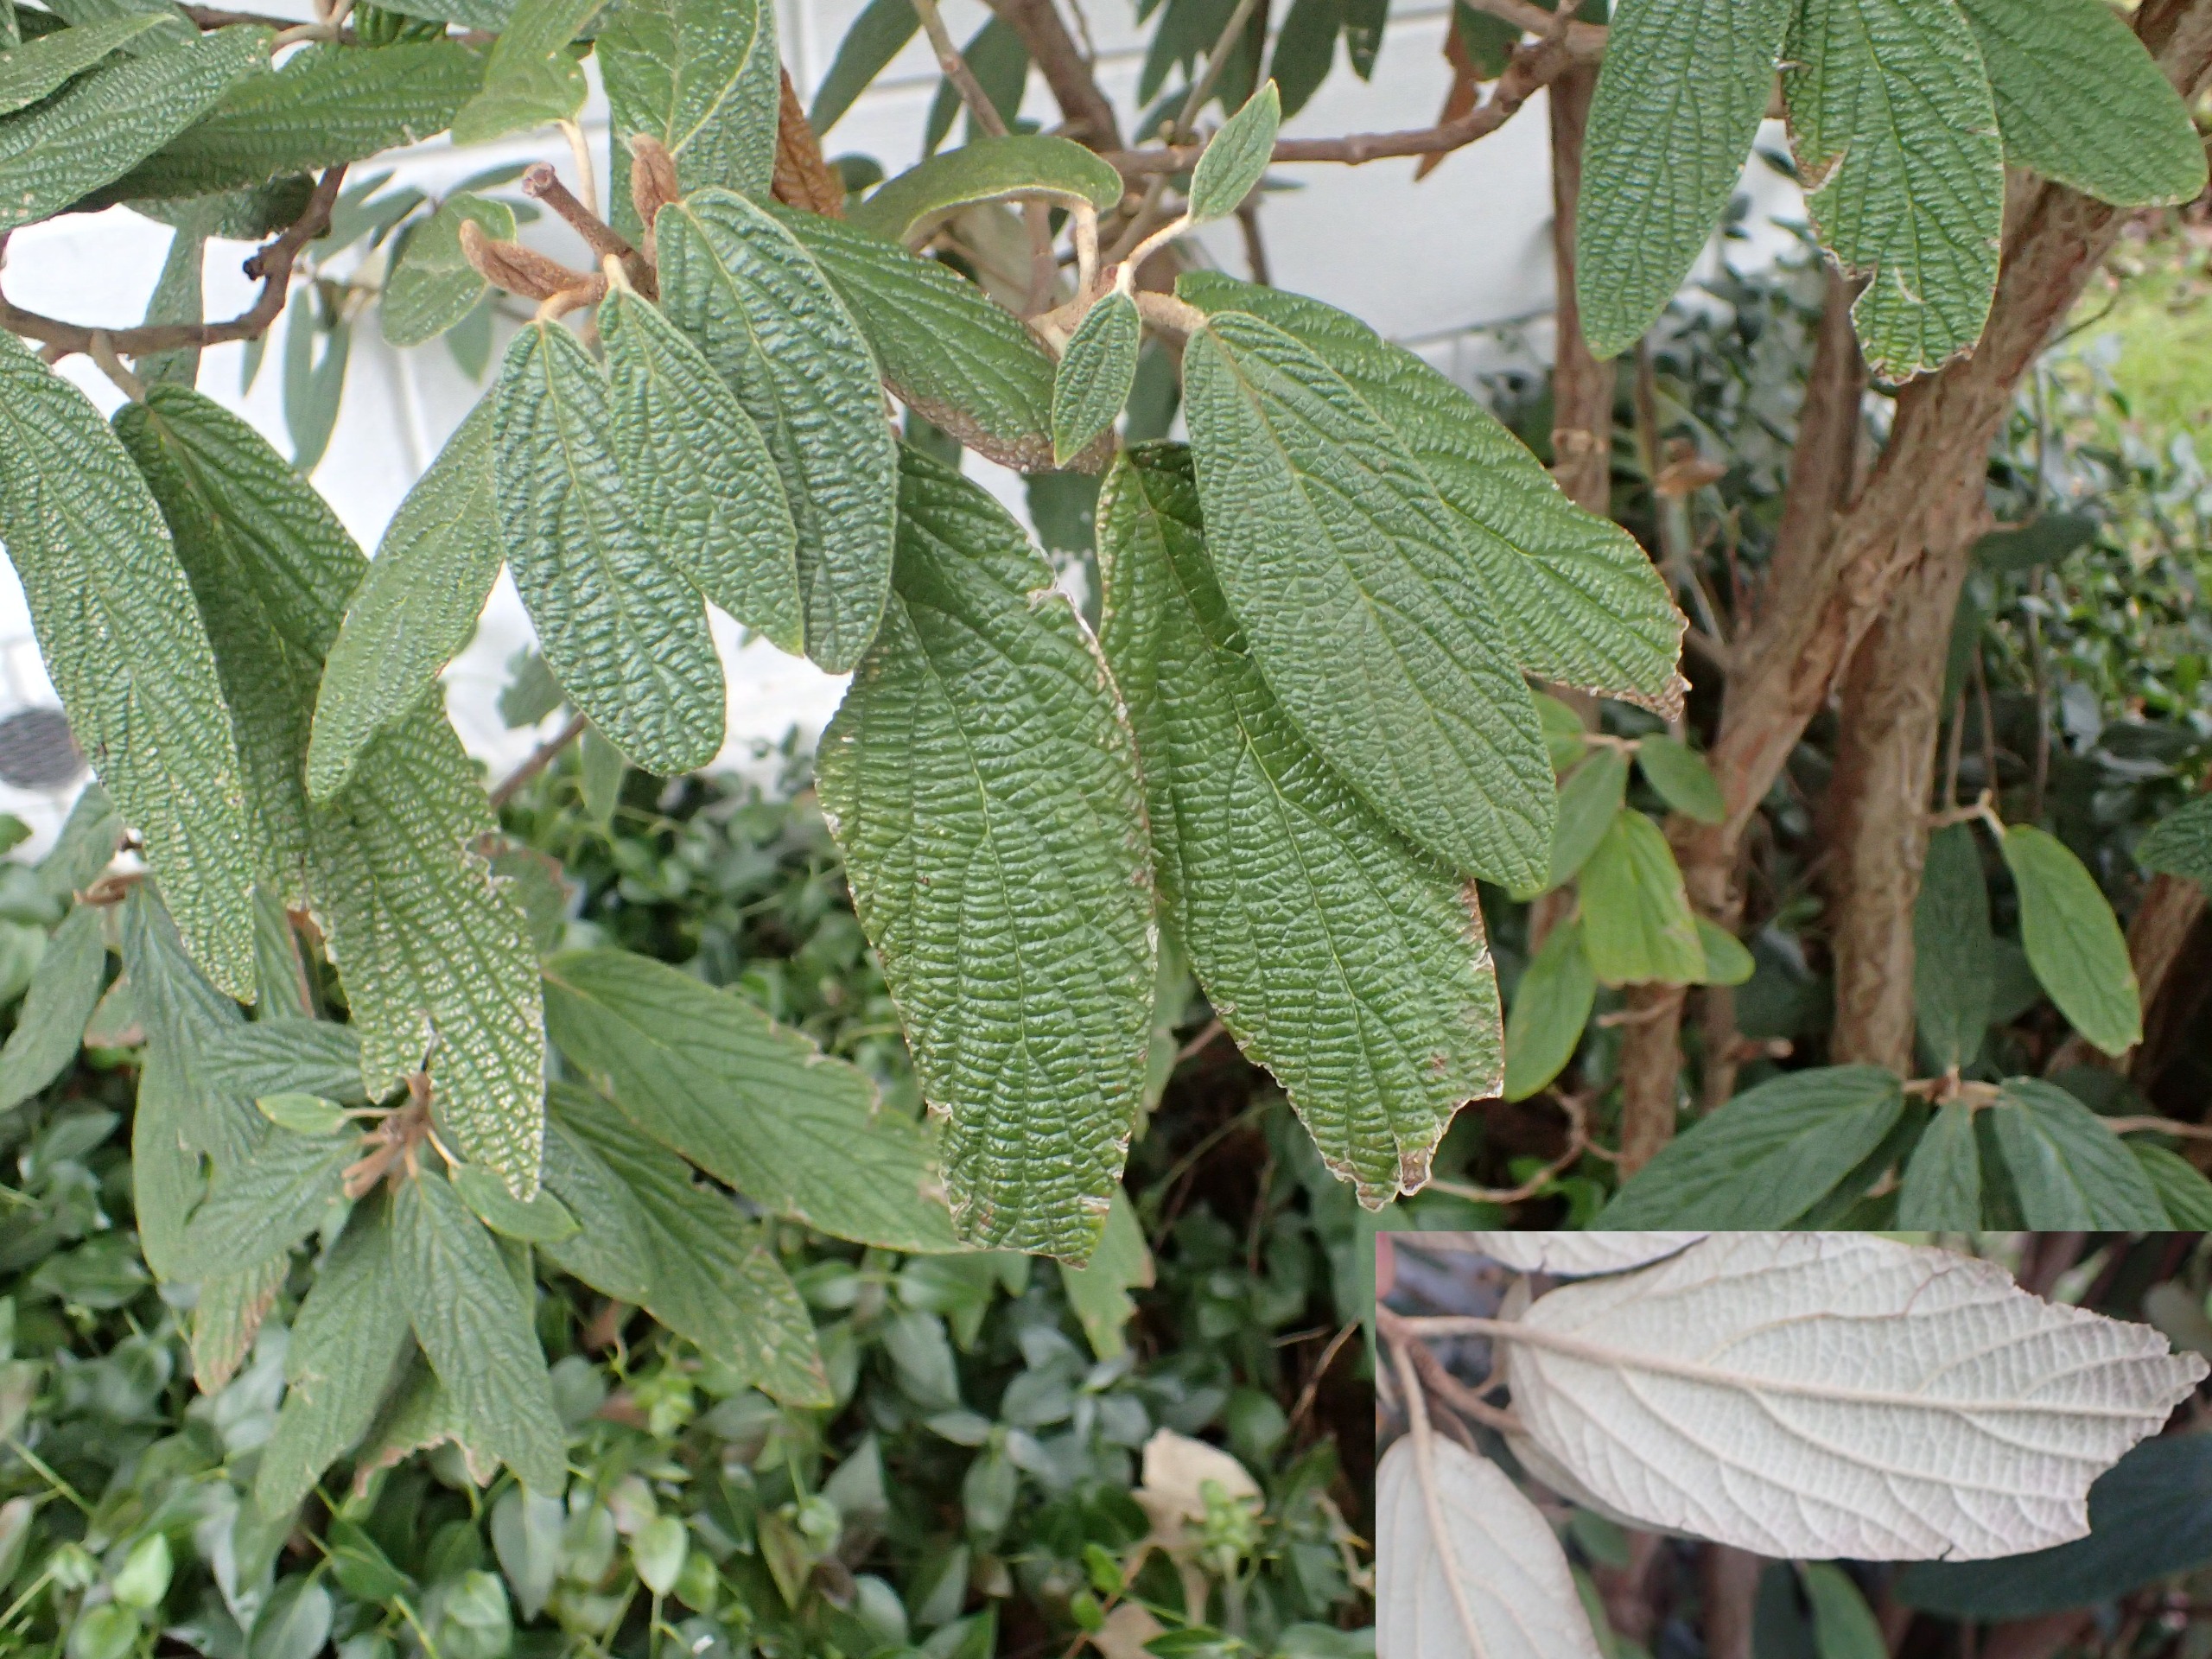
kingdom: Plantae
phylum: Tracheophyta
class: Magnoliopsida
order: Dipsacales
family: Viburnaceae
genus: Viburnum
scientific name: Viburnum rhytidophyllum
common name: Rynkeblad
